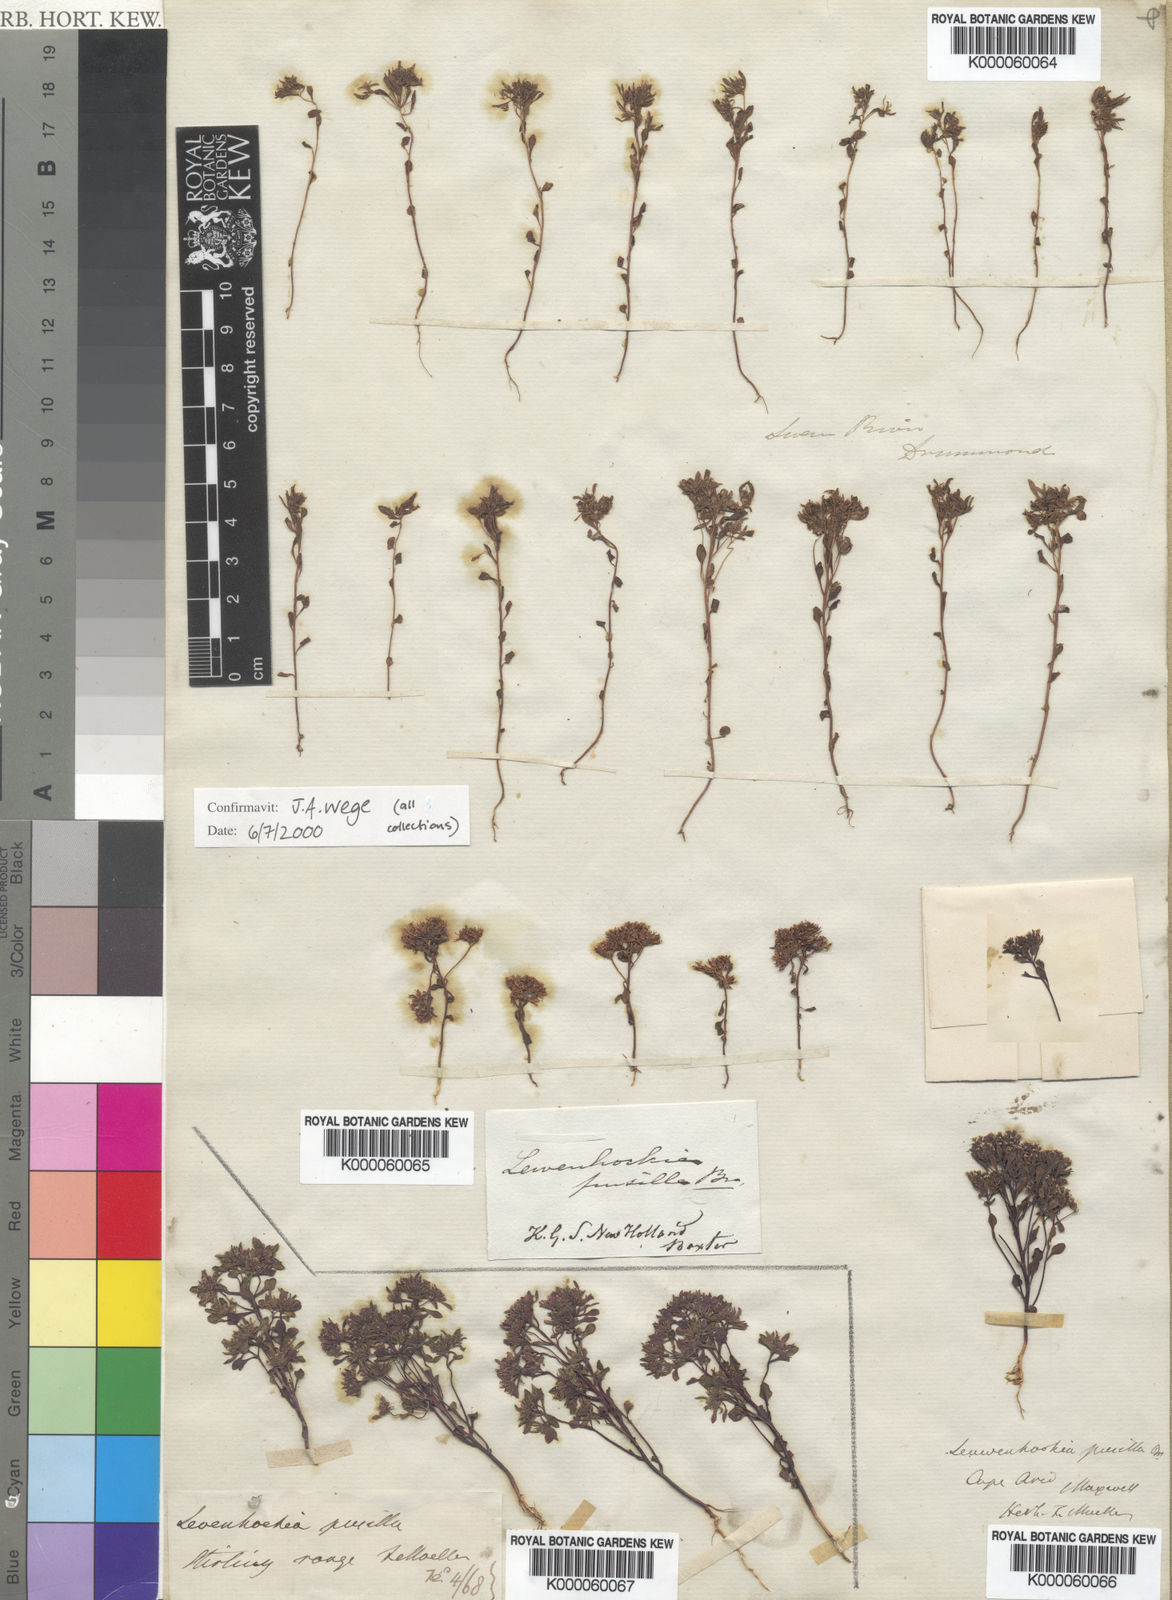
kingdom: Plantae
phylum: Tracheophyta
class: Magnoliopsida
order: Asterales
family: Stylidiaceae
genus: Levenhookia
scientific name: Levenhookia pusilla
